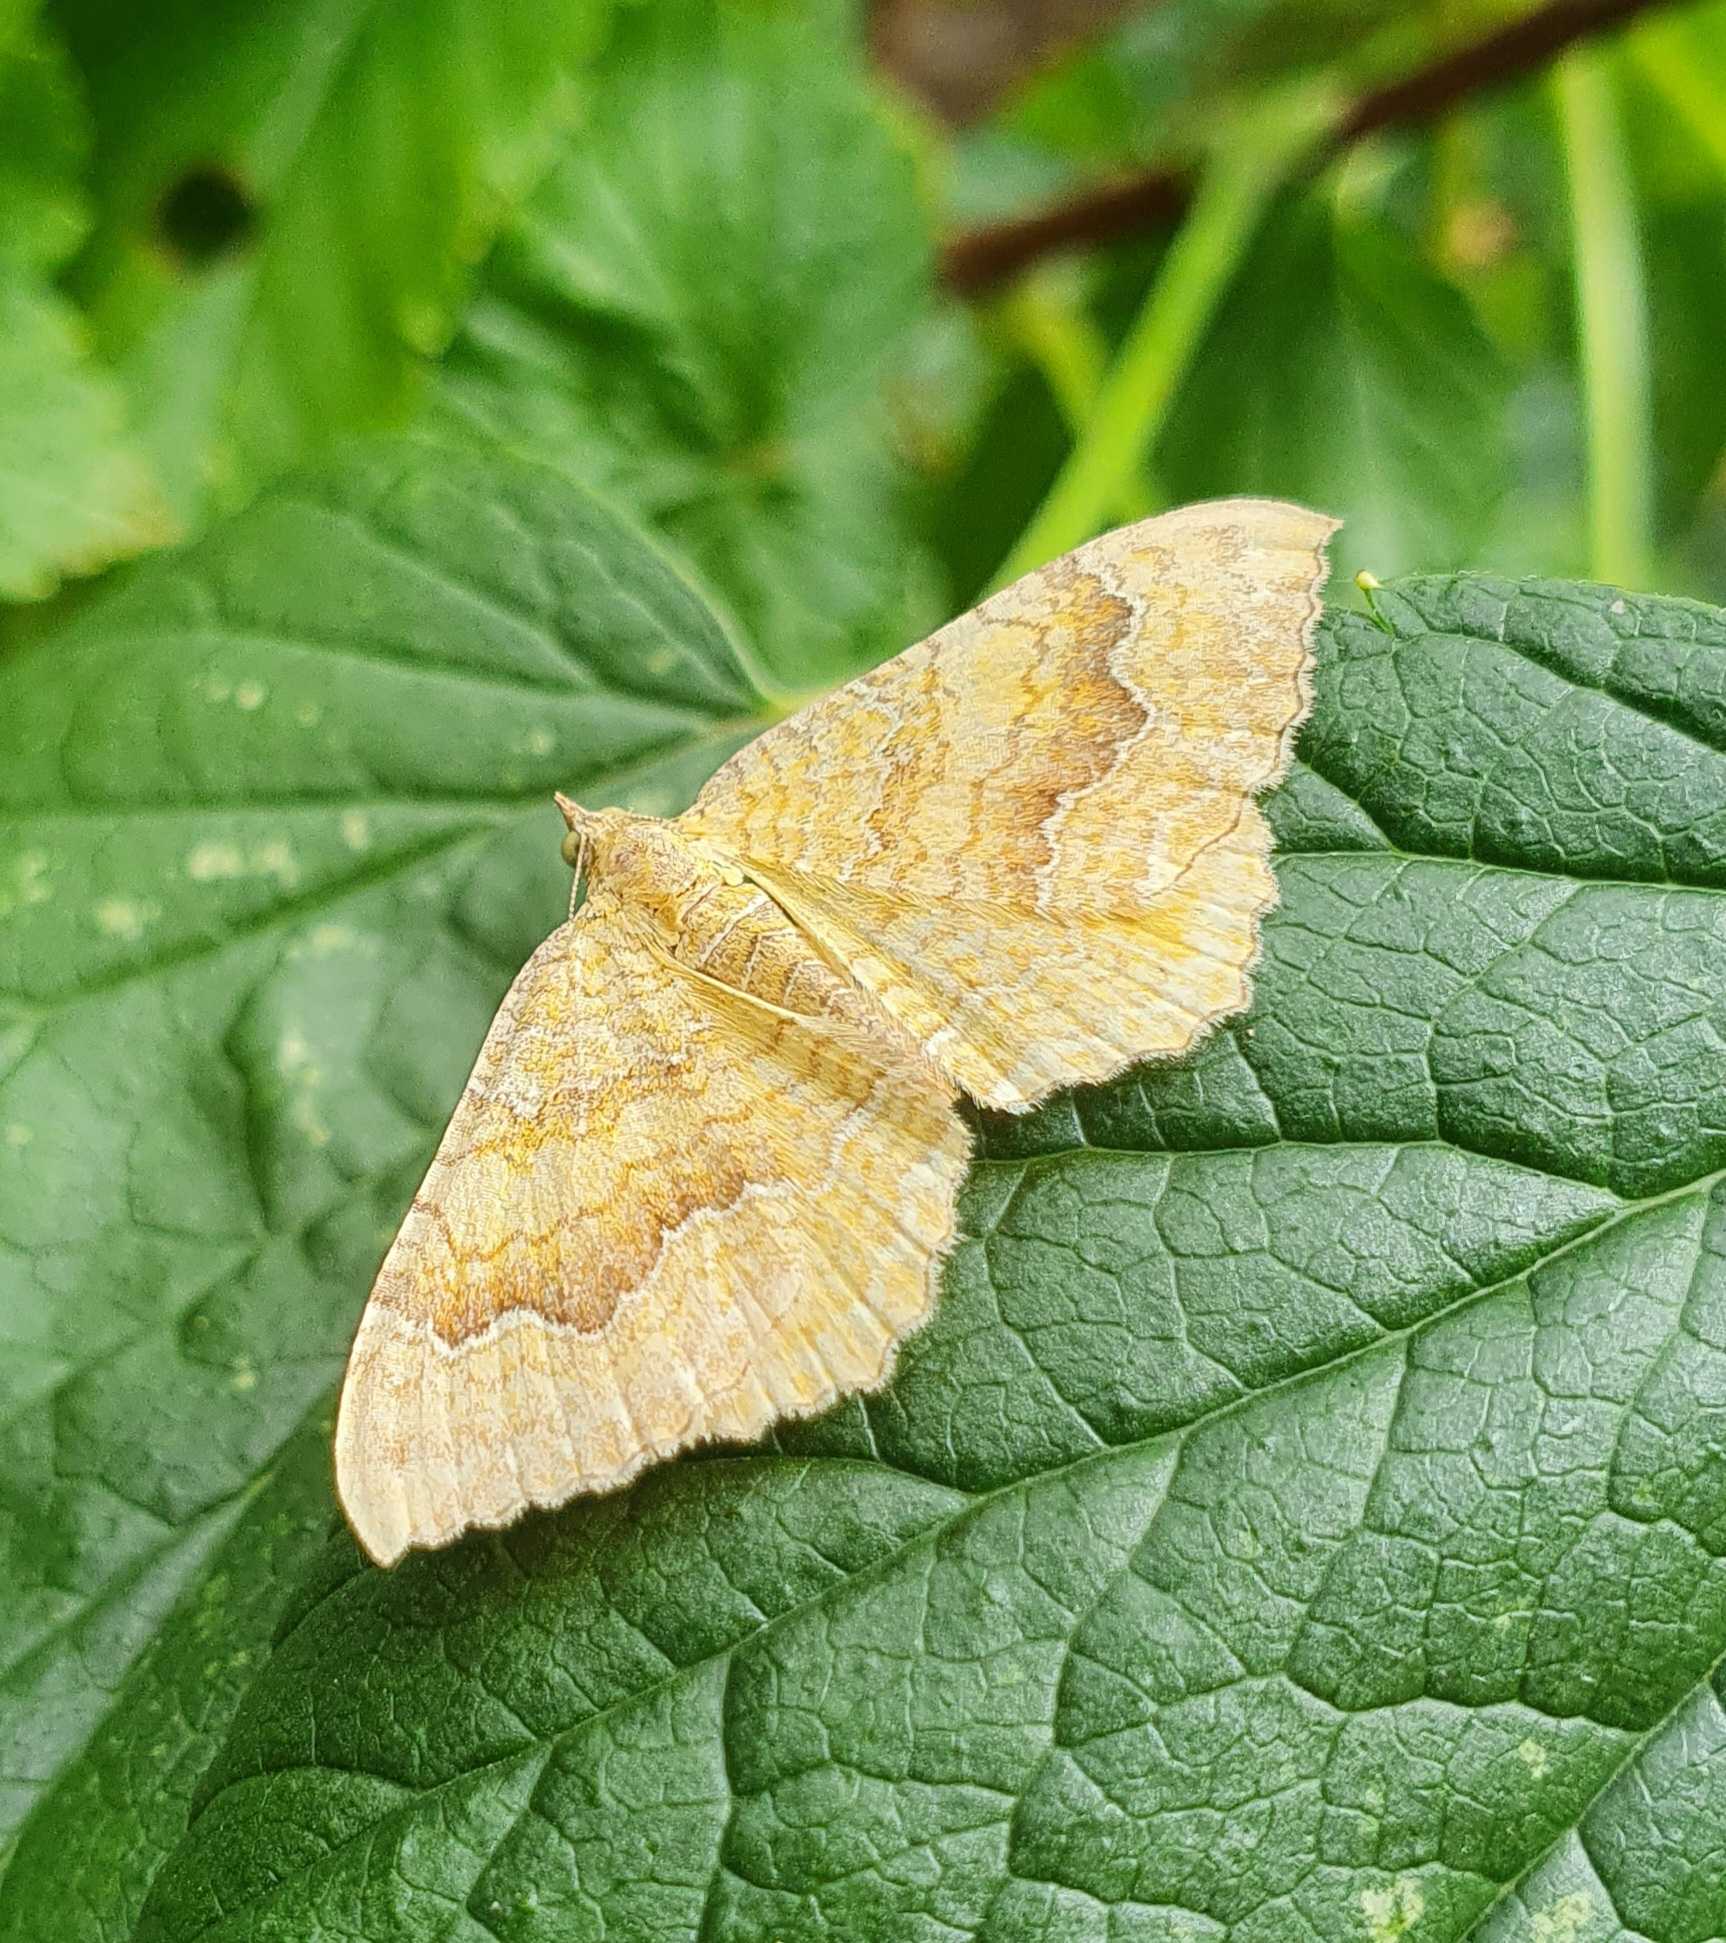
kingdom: Animalia
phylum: Arthropoda
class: Insecta
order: Lepidoptera
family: Geometridae
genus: Camptogramma
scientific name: Camptogramma bilineata
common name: Okkergul bladmåler
